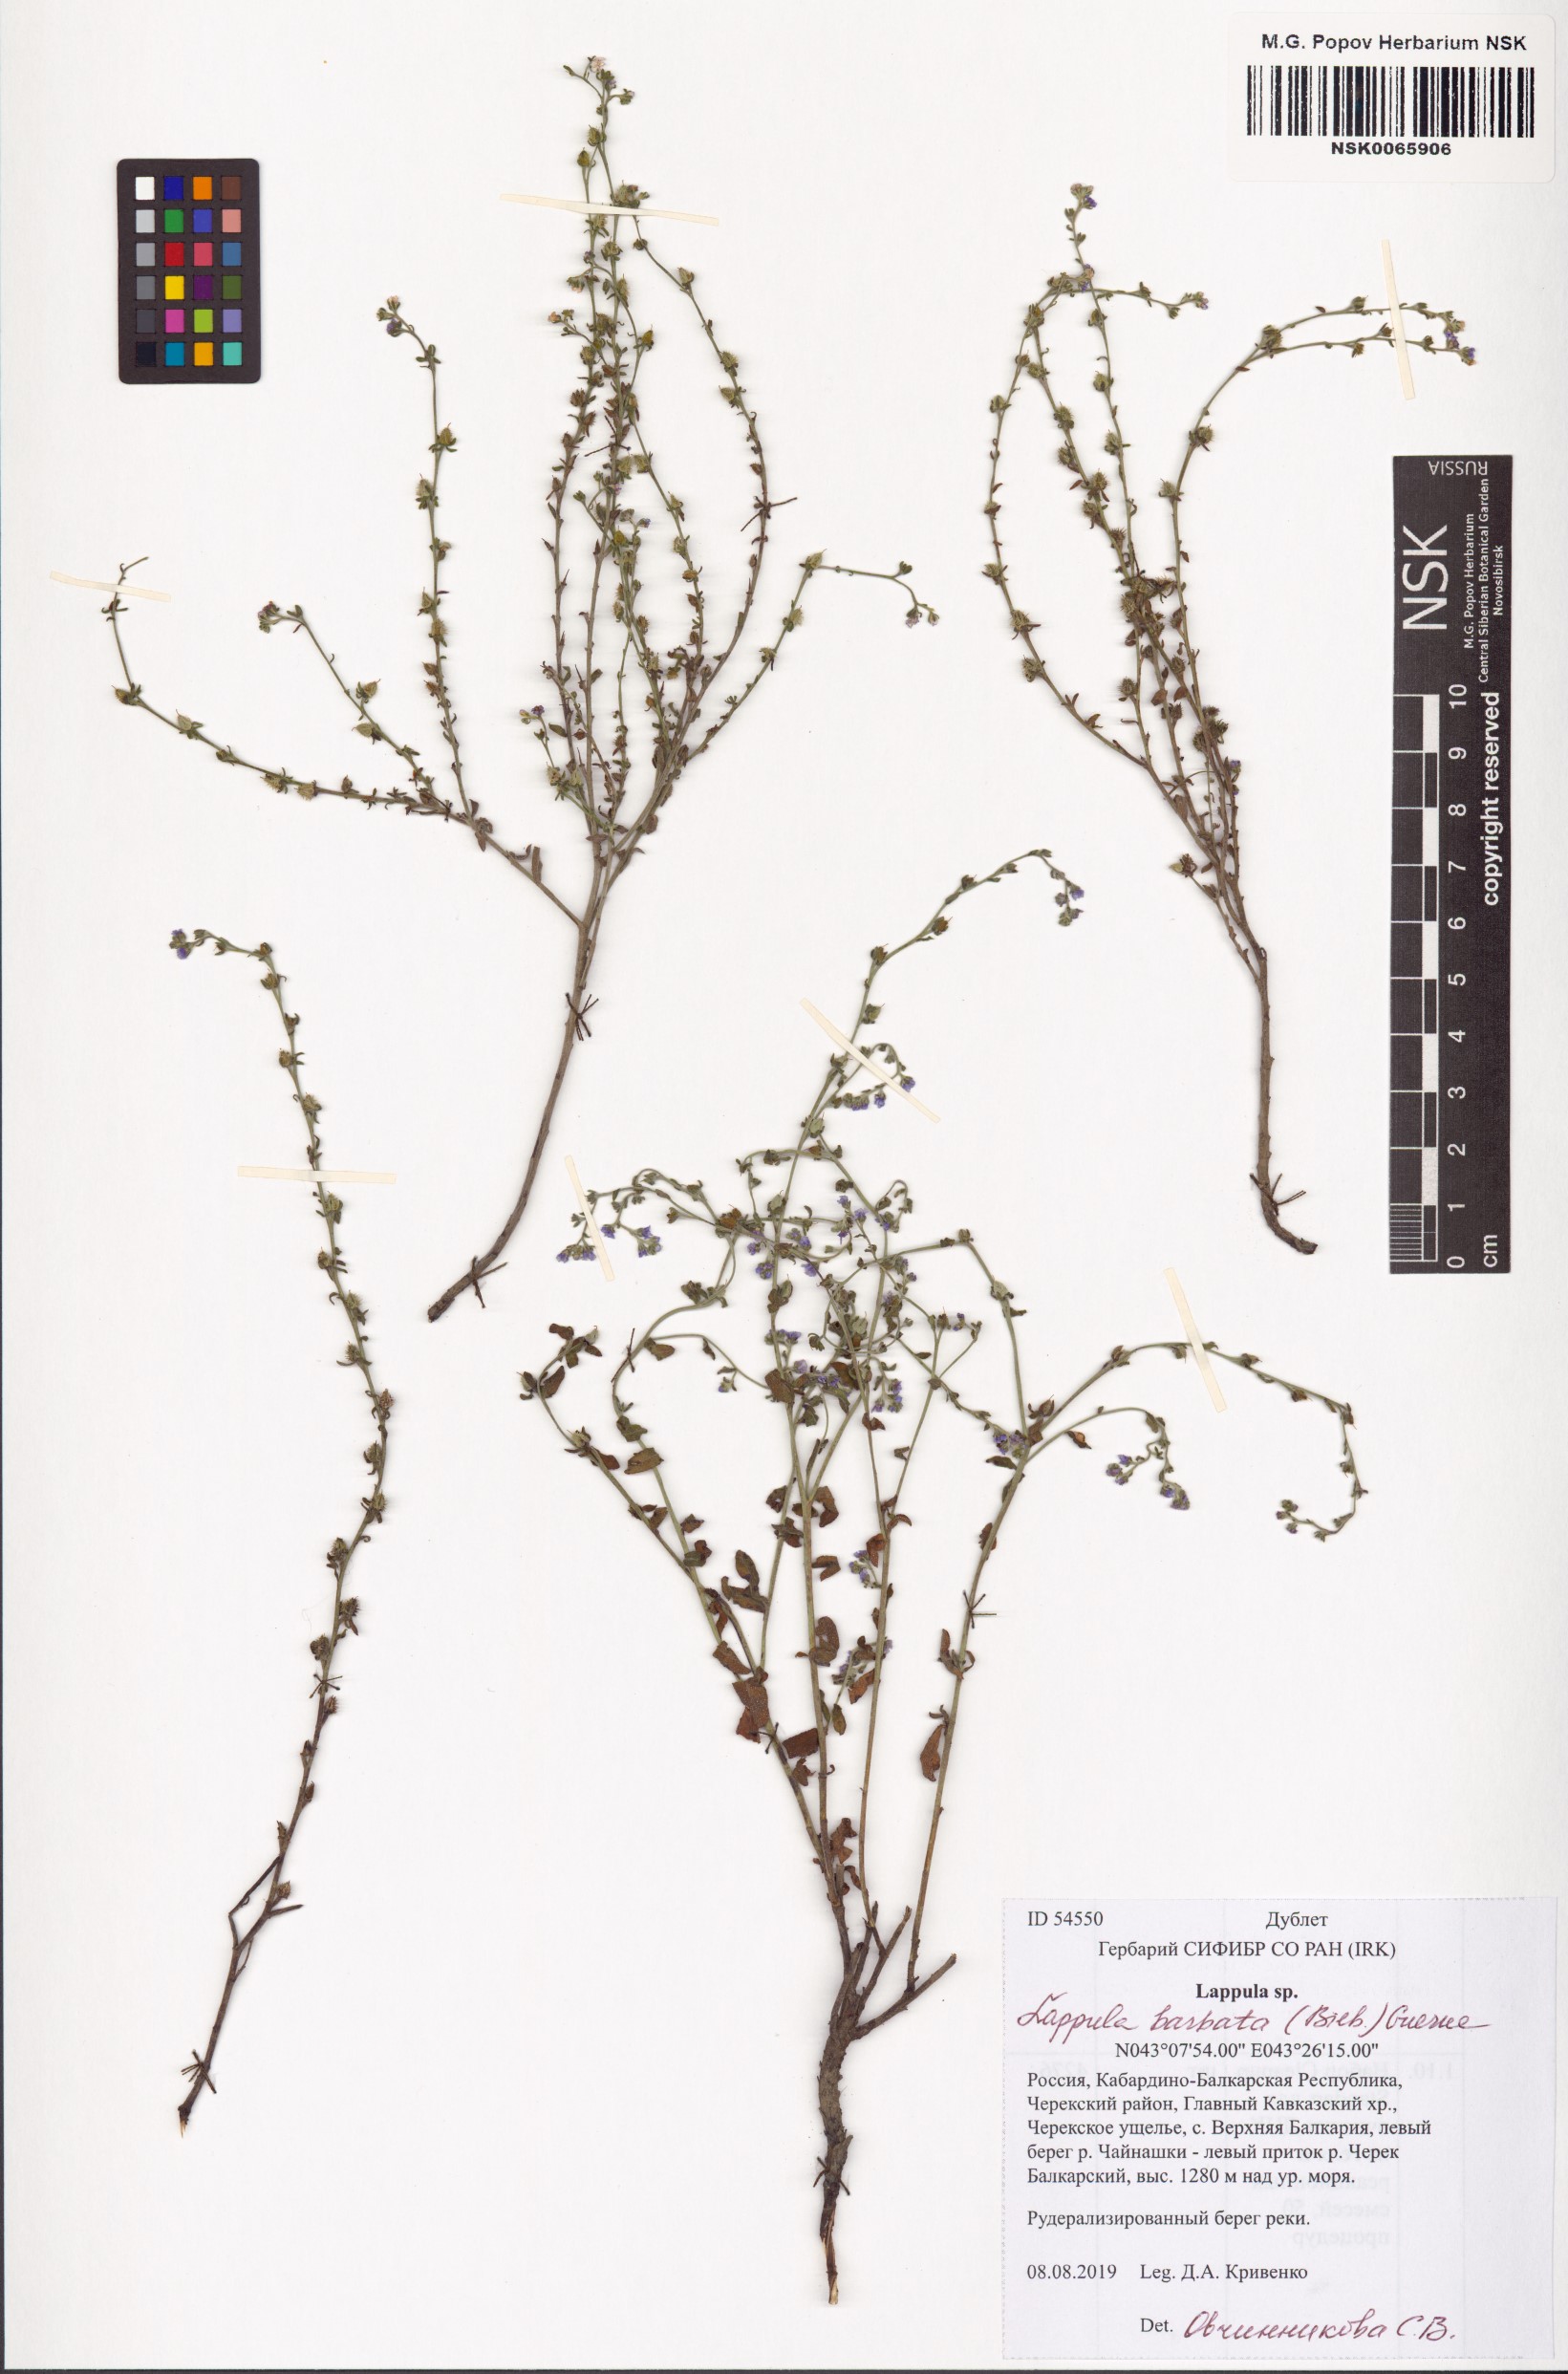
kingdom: Plantae
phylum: Tracheophyta
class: Magnoliopsida
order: Boraginales
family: Boraginaceae
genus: Lappula
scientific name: Lappula barbata
